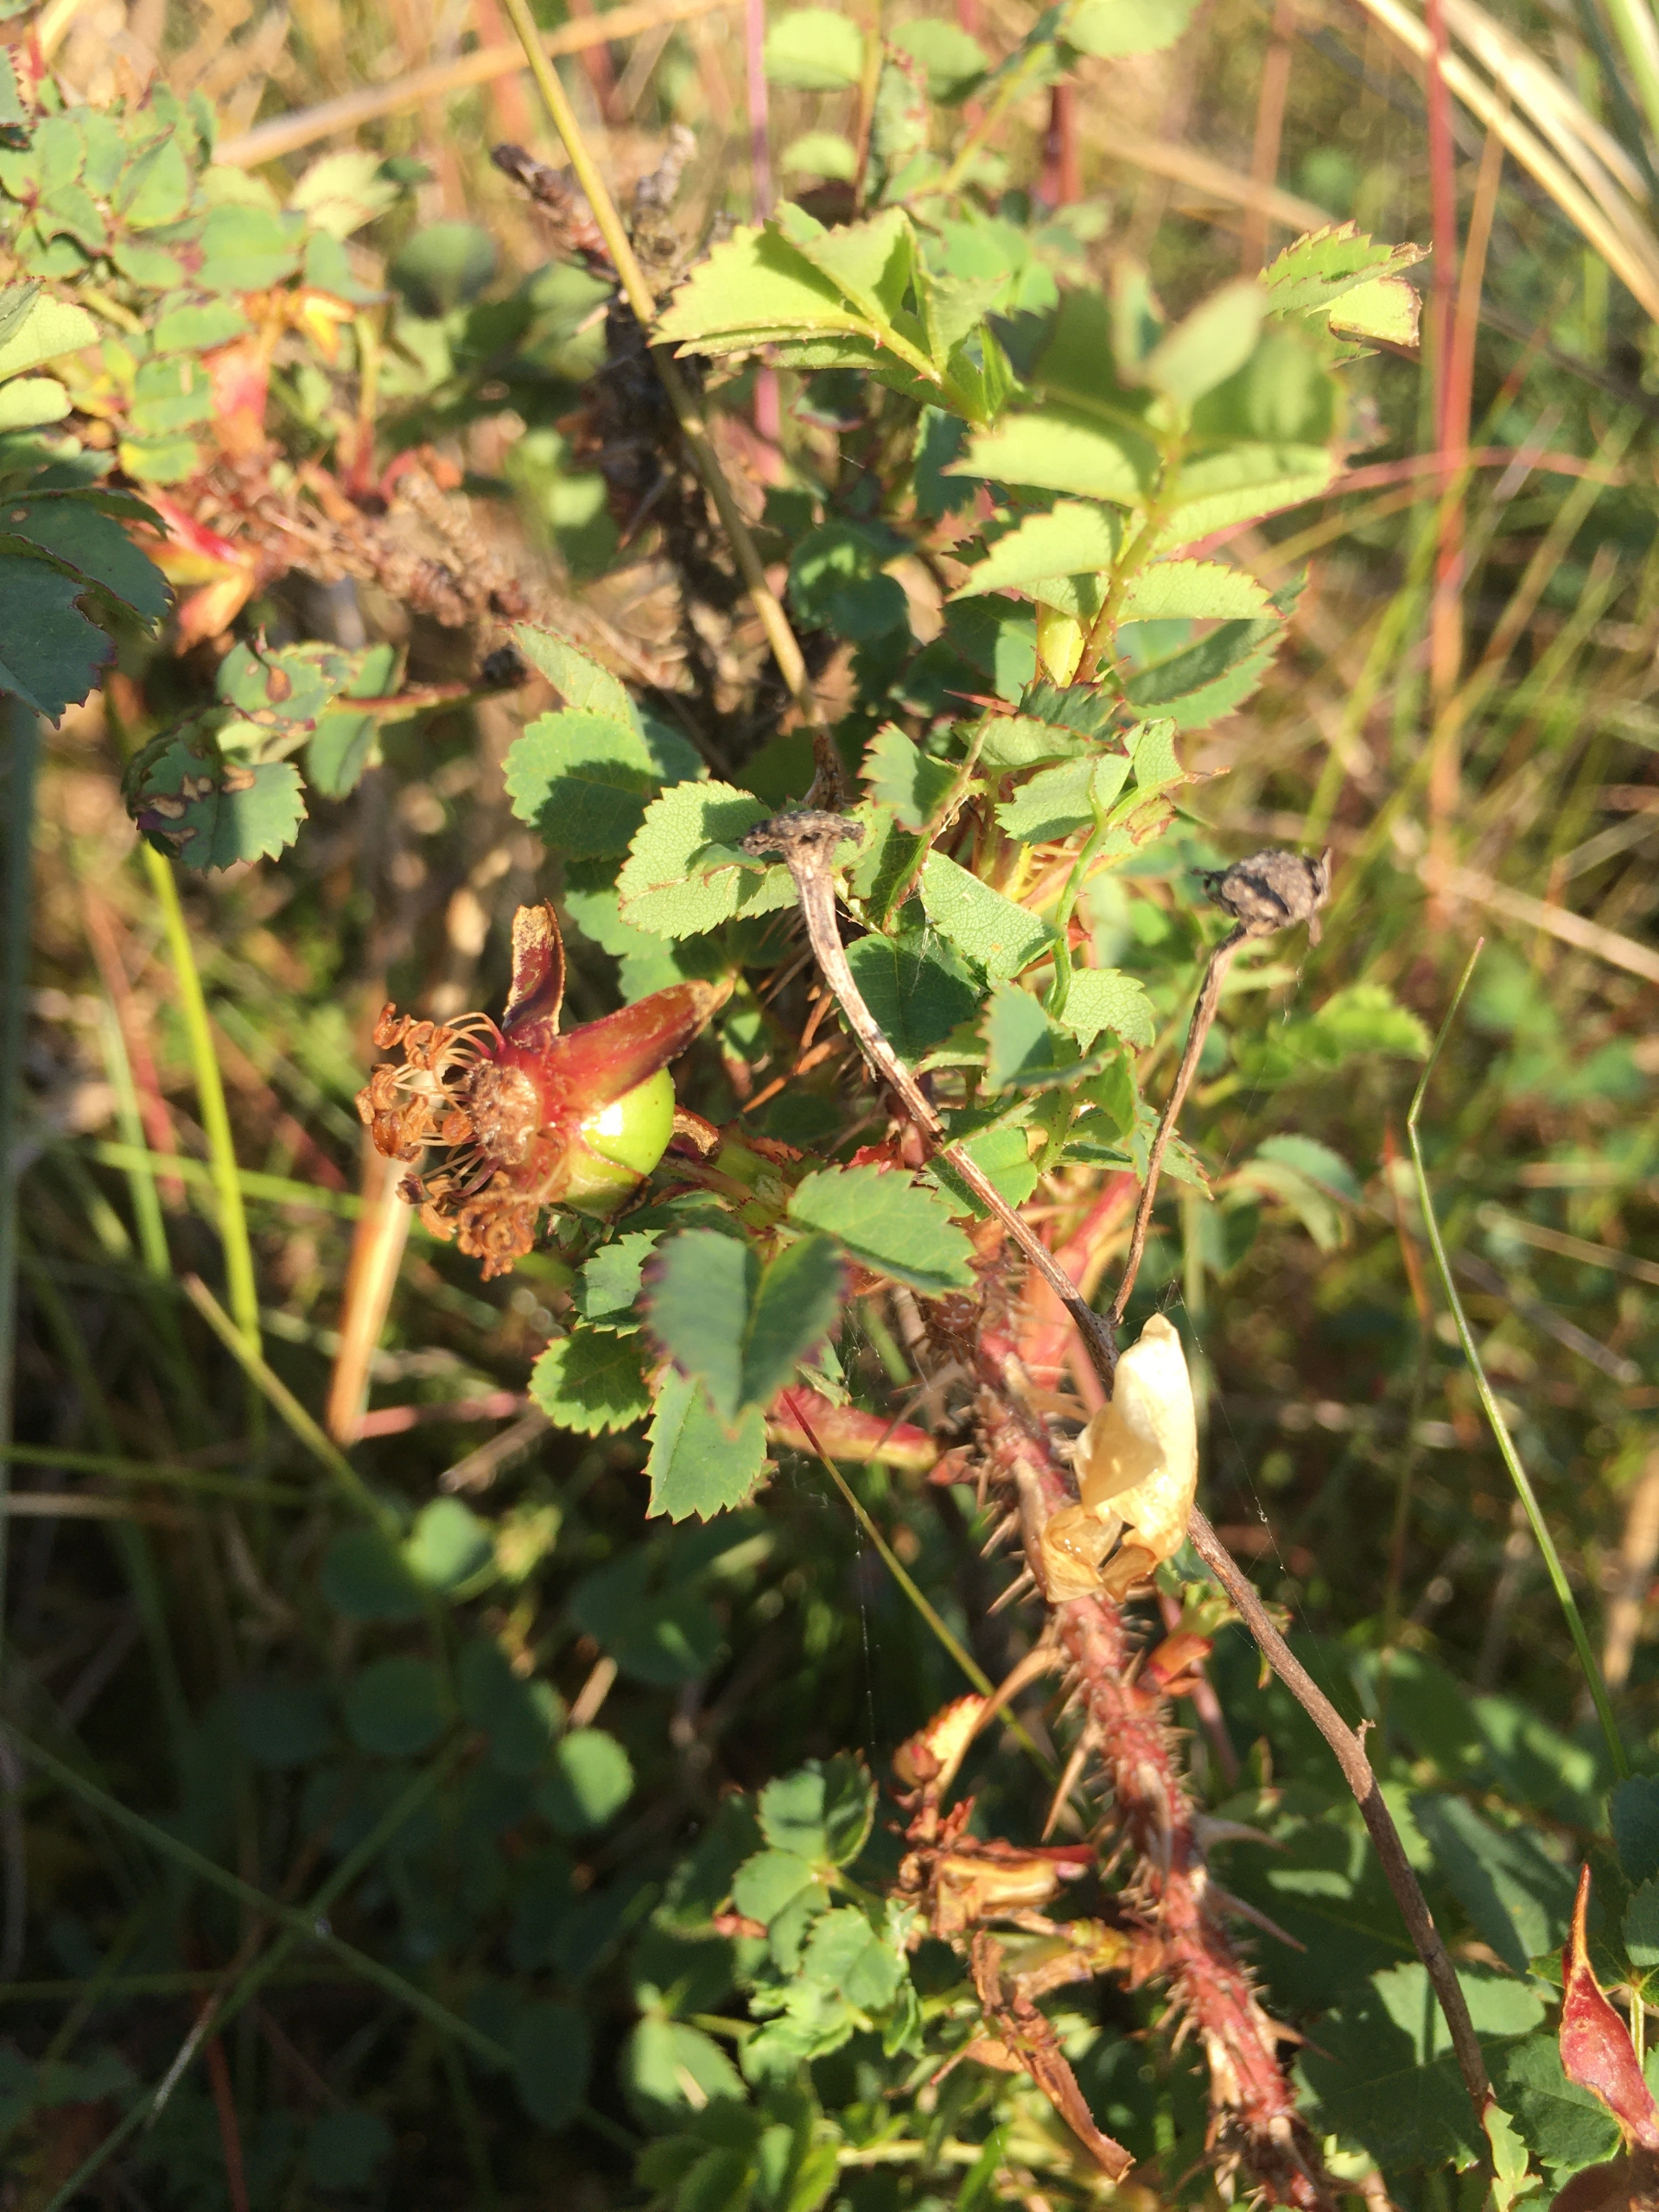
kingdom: Plantae
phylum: Tracheophyta
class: Magnoliopsida
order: Rosales
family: Rosaceae
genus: Rosa
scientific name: Rosa spinosissima
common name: Klit-rose
